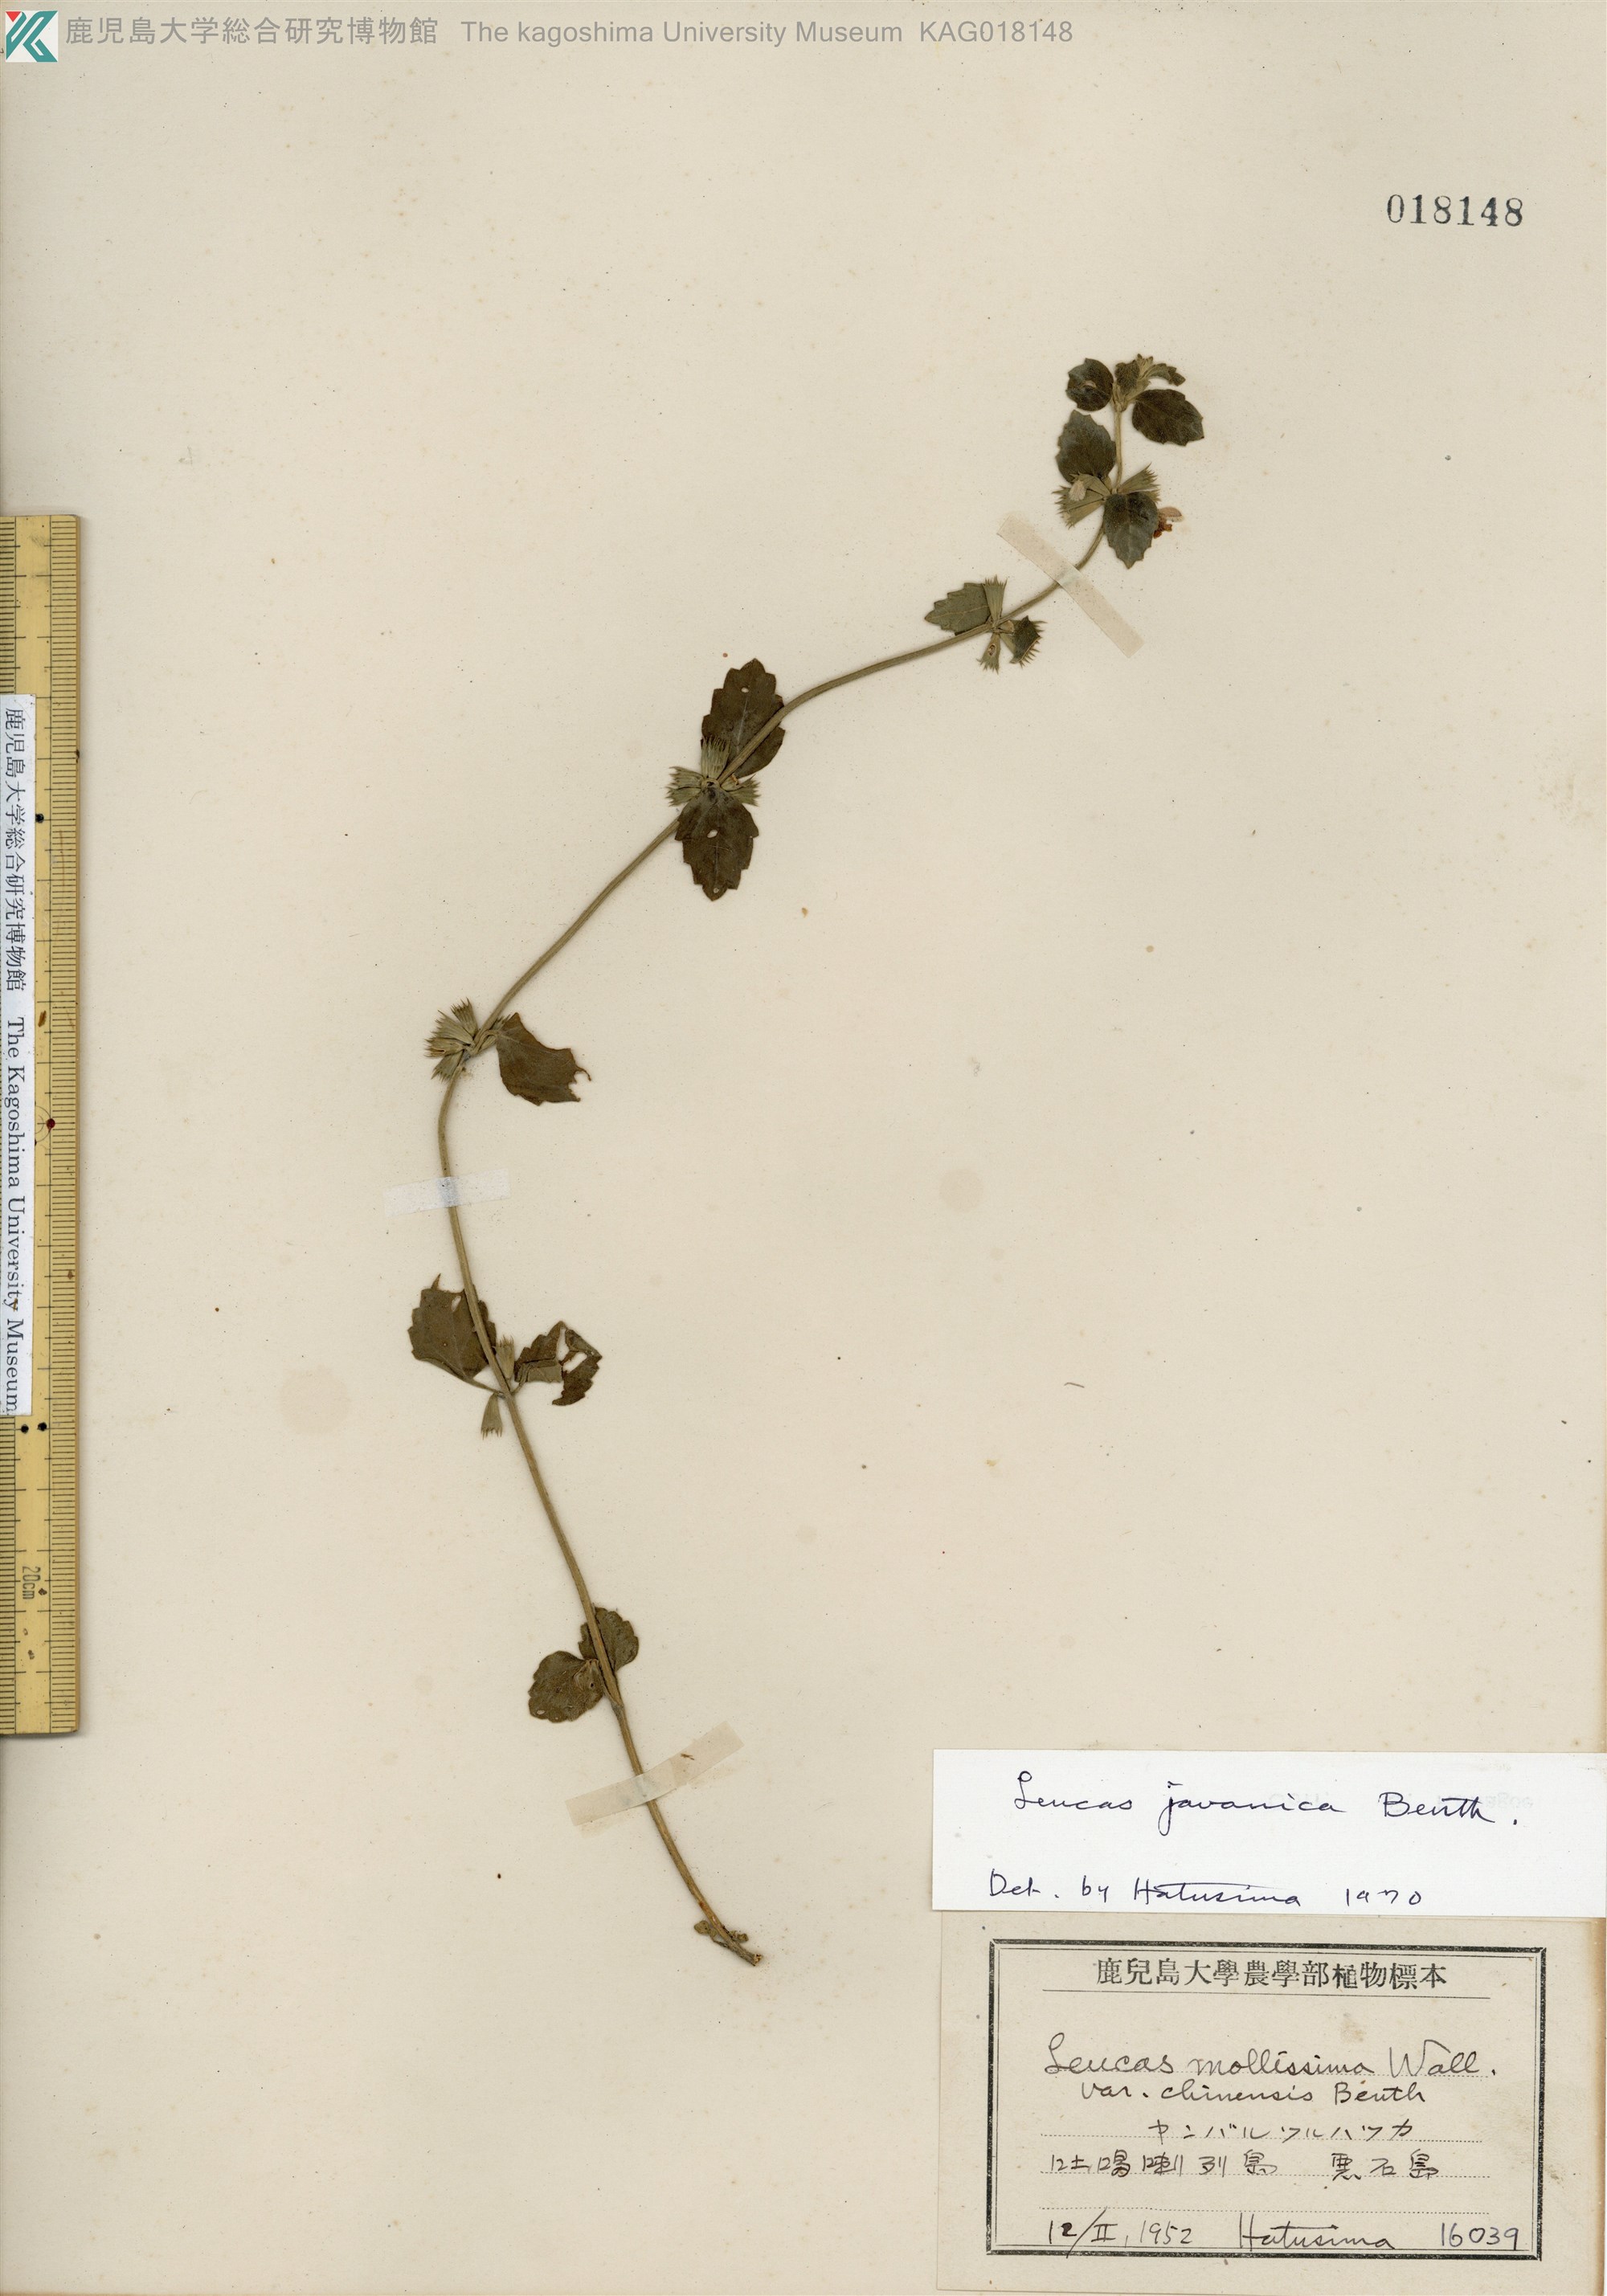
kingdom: Plantae
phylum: Tracheophyta
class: Magnoliopsida
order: Lamiales
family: Lamiaceae
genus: Leucas
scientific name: Leucas chinensis
